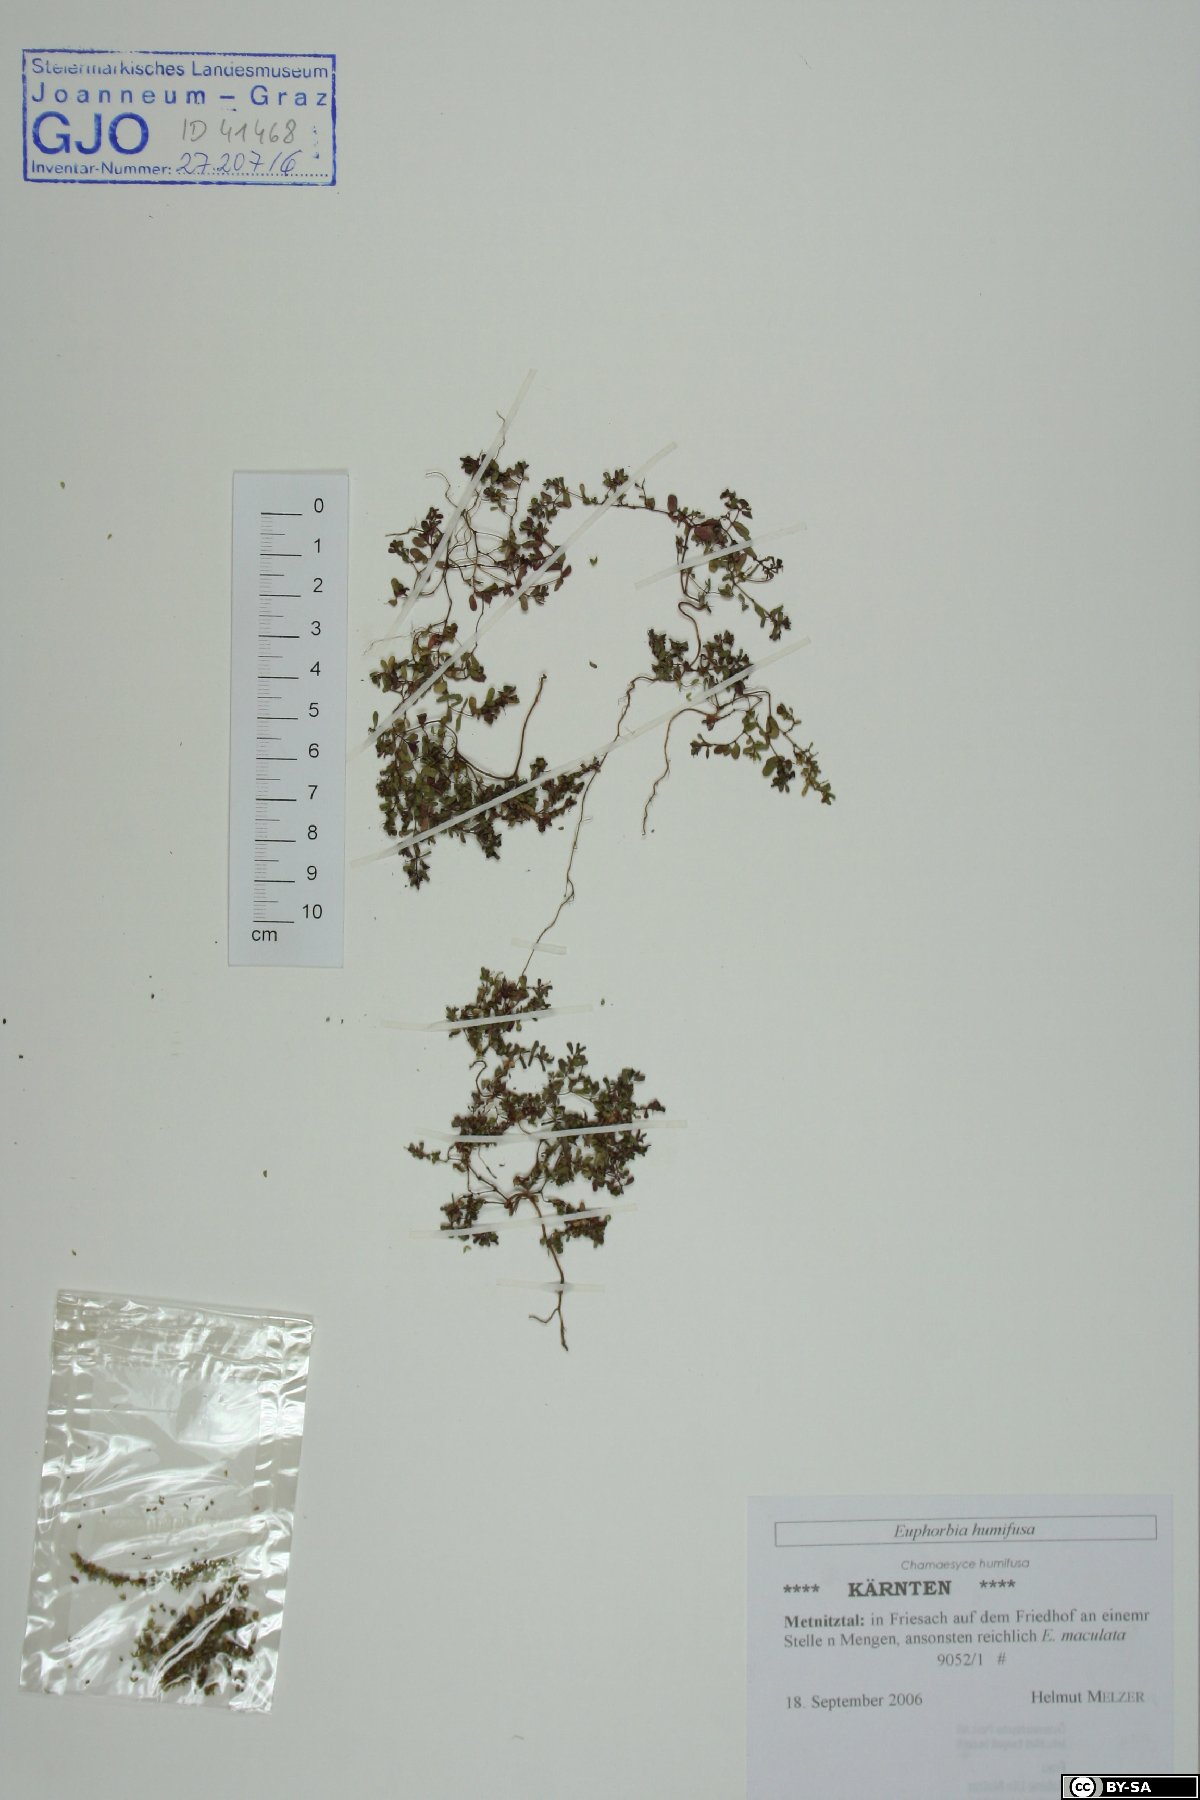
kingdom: Plantae
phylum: Tracheophyta
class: Magnoliopsida
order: Malpighiales
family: Euphorbiaceae
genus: Euphorbia
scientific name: Euphorbia humifusa
